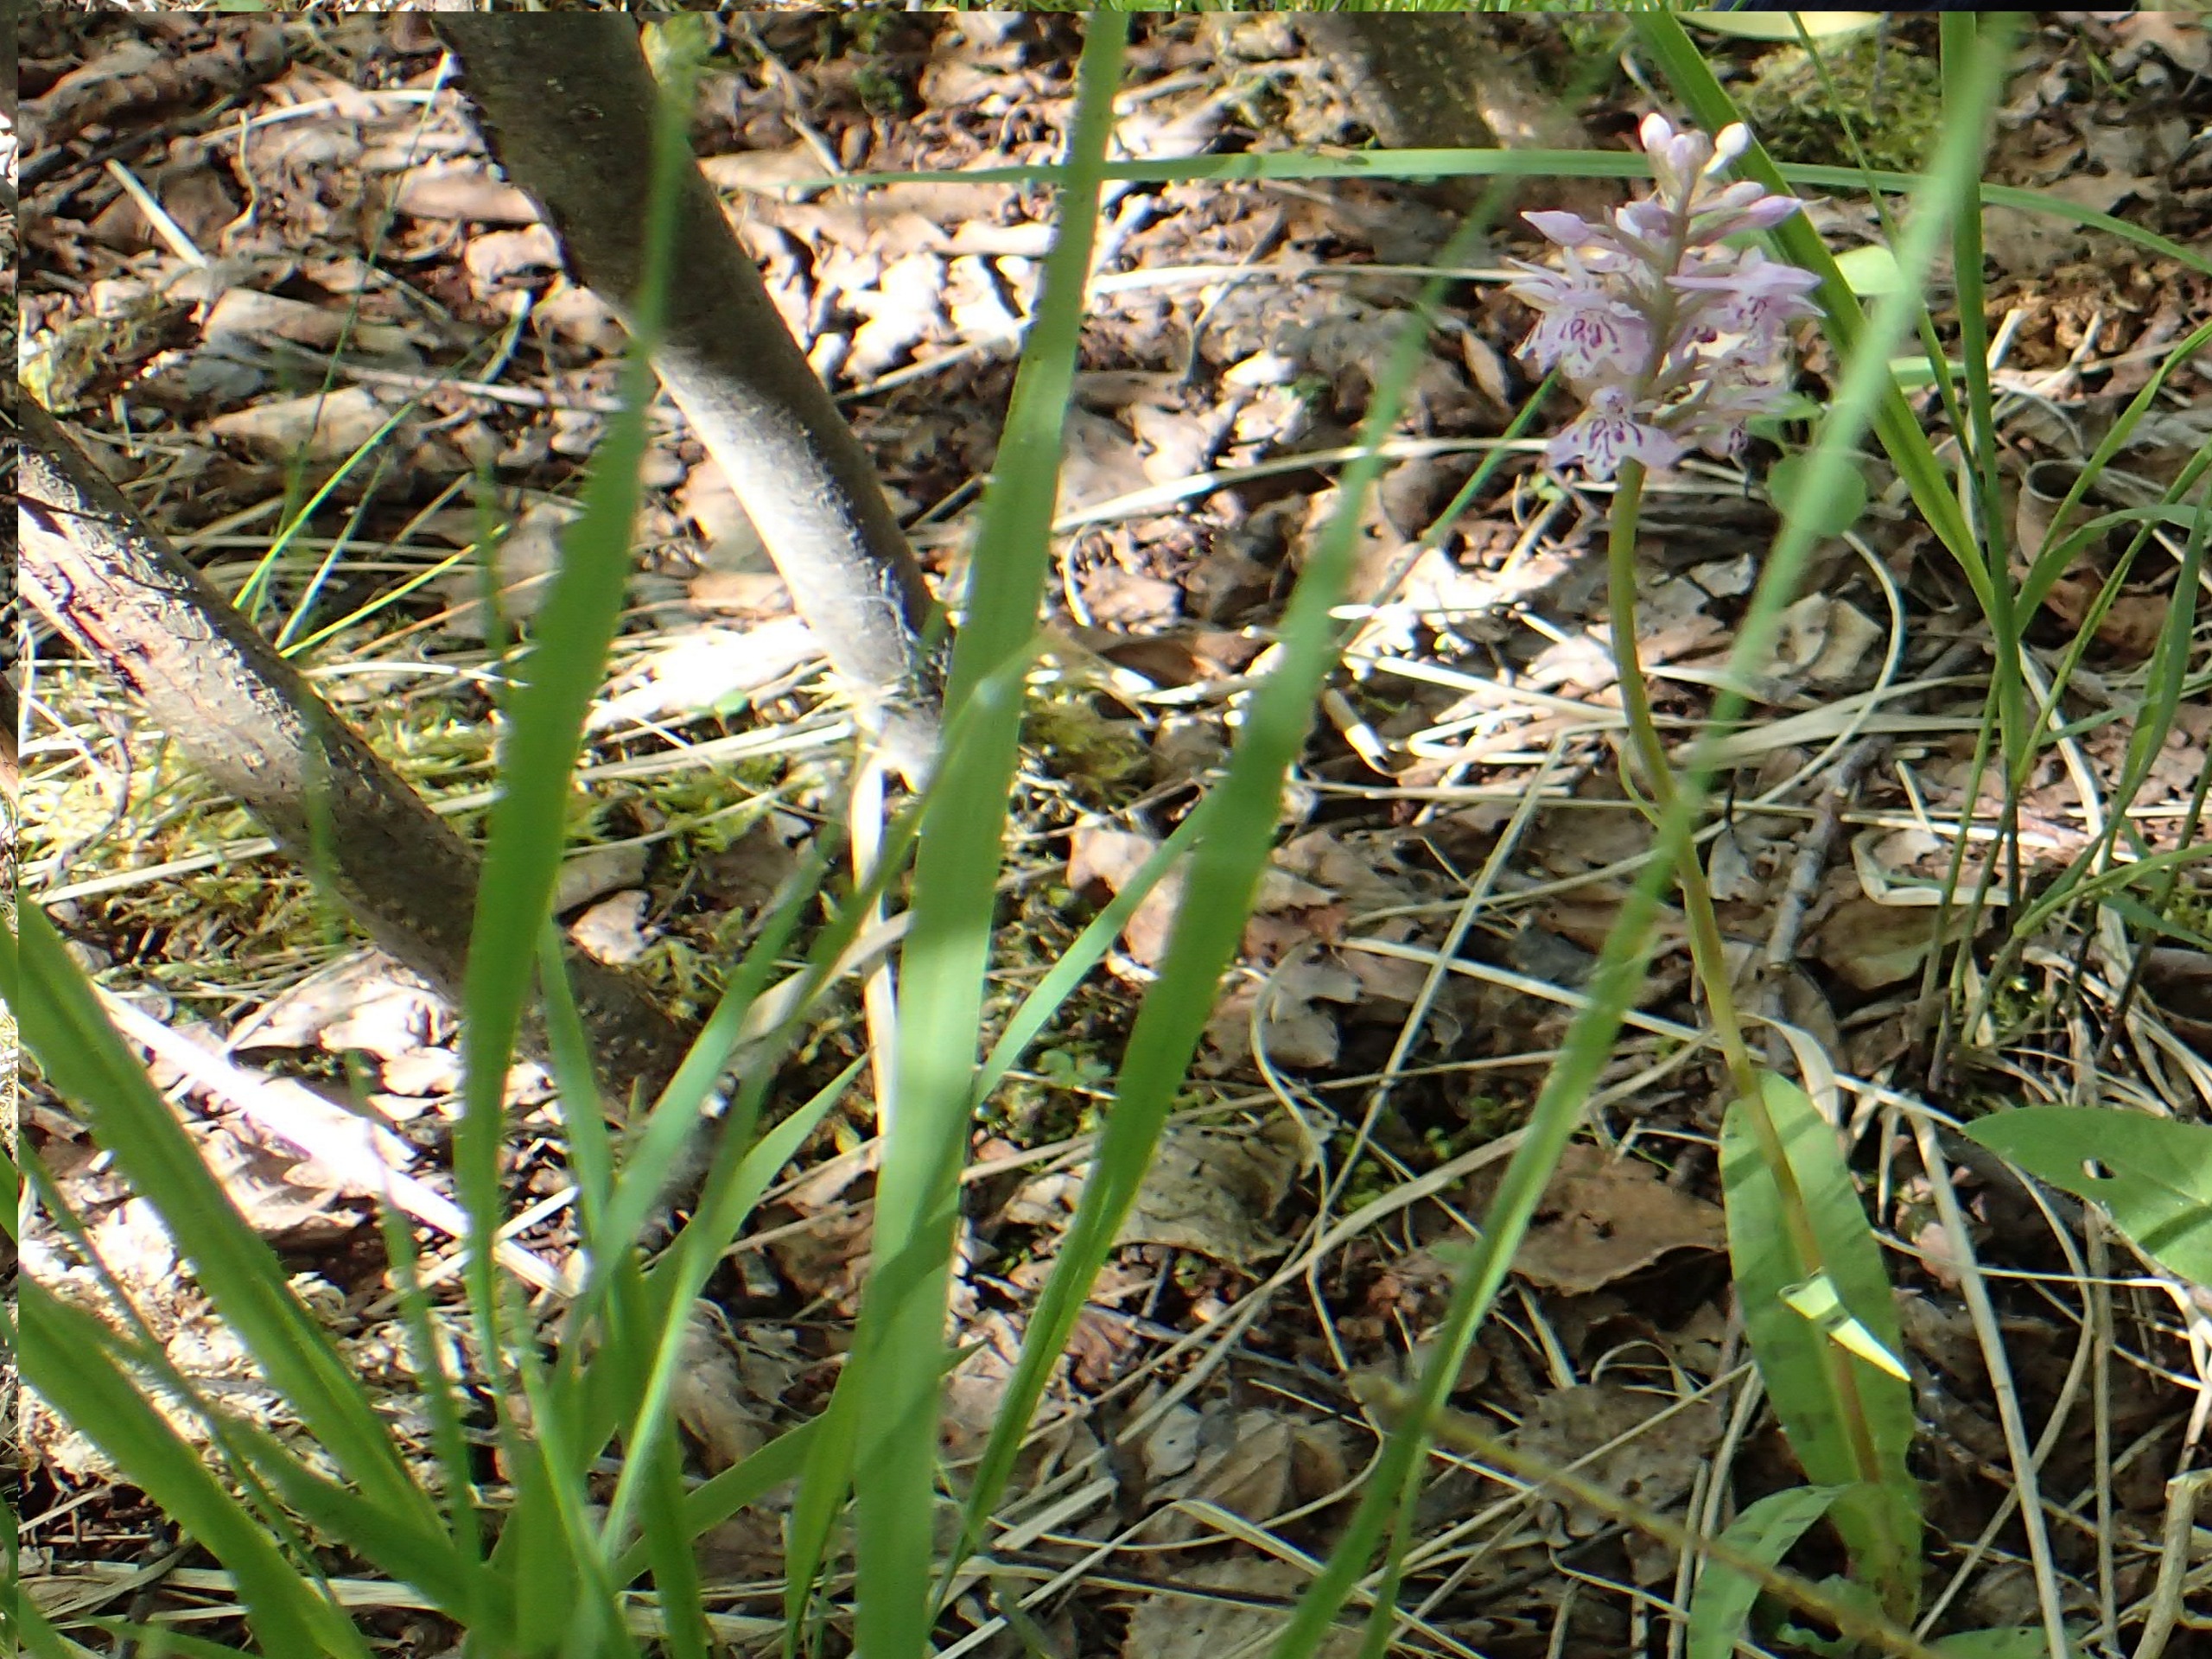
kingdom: Plantae
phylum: Tracheophyta
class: Liliopsida
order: Asparagales
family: Orchidaceae
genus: Dactylorhiza
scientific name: Dactylorhiza maculata
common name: Skov-gøgeurt
